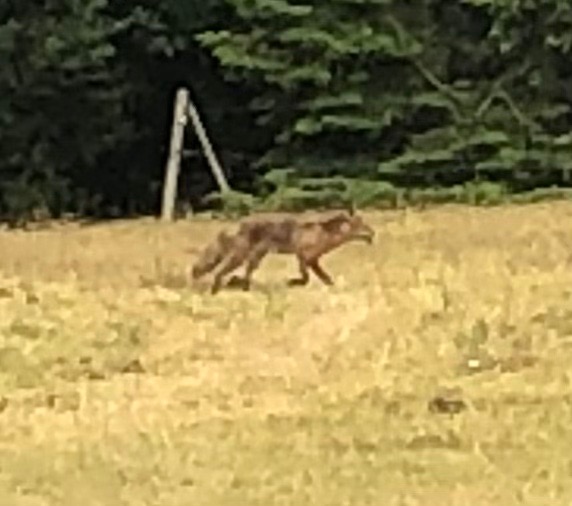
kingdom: Animalia
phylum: Chordata
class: Mammalia
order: Carnivora
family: Canidae
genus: Vulpes
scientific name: Vulpes vulpes
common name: Ræv
